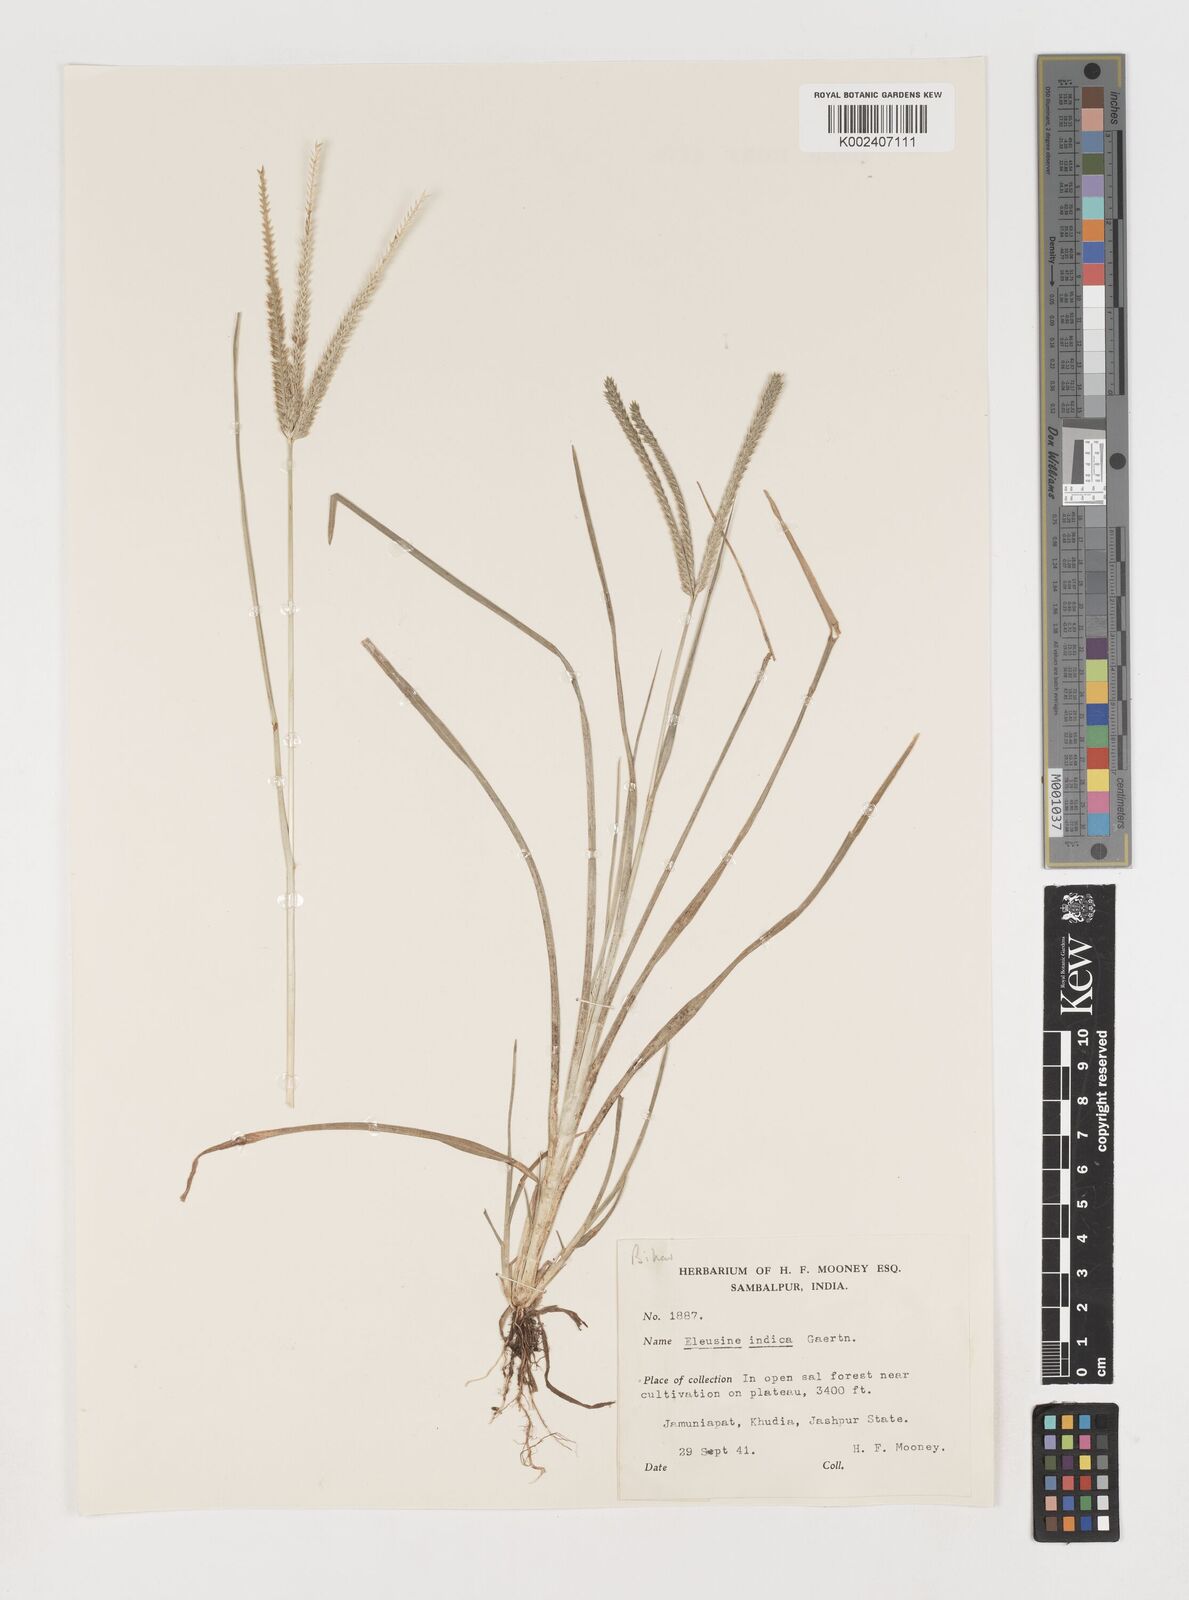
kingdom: Plantae
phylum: Tracheophyta
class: Liliopsida
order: Poales
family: Poaceae
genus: Eleusine
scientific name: Eleusine indica
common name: Yard-grass
